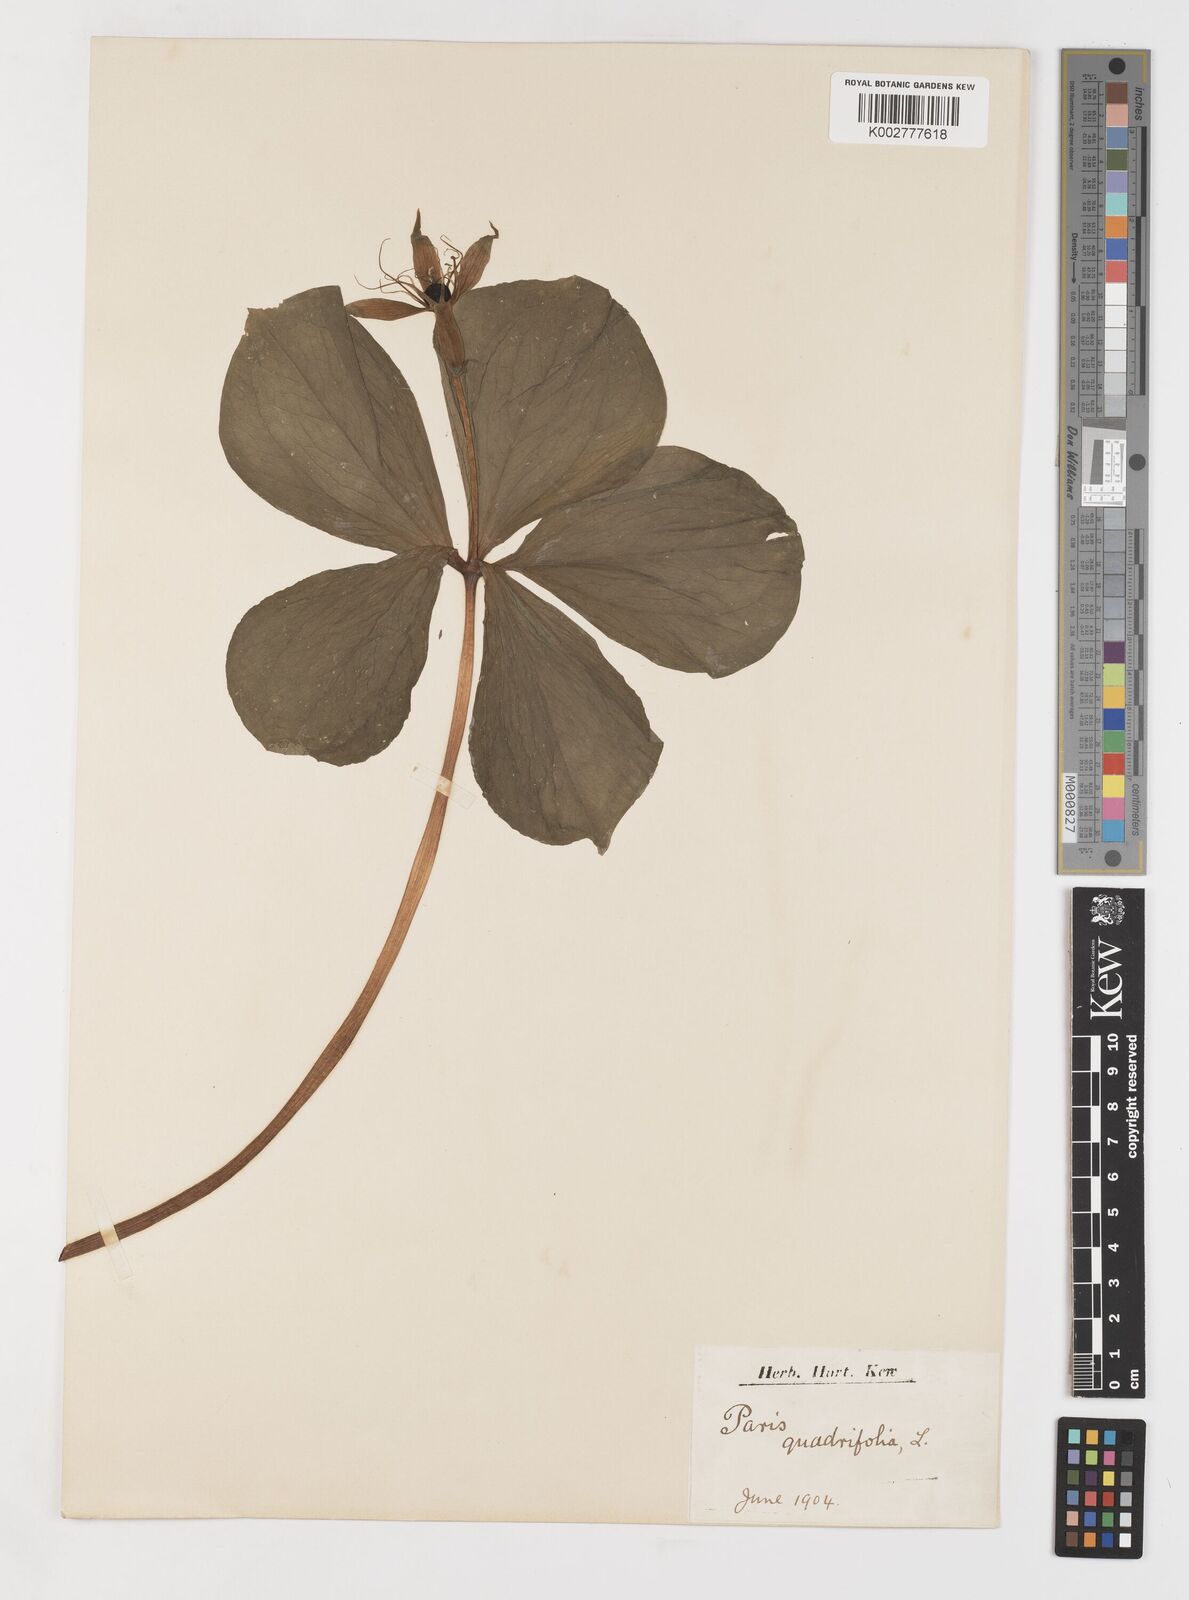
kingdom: Plantae
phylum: Tracheophyta
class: Liliopsida
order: Liliales
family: Melanthiaceae
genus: Paris
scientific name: Paris quadrifolia
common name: Herb-paris
